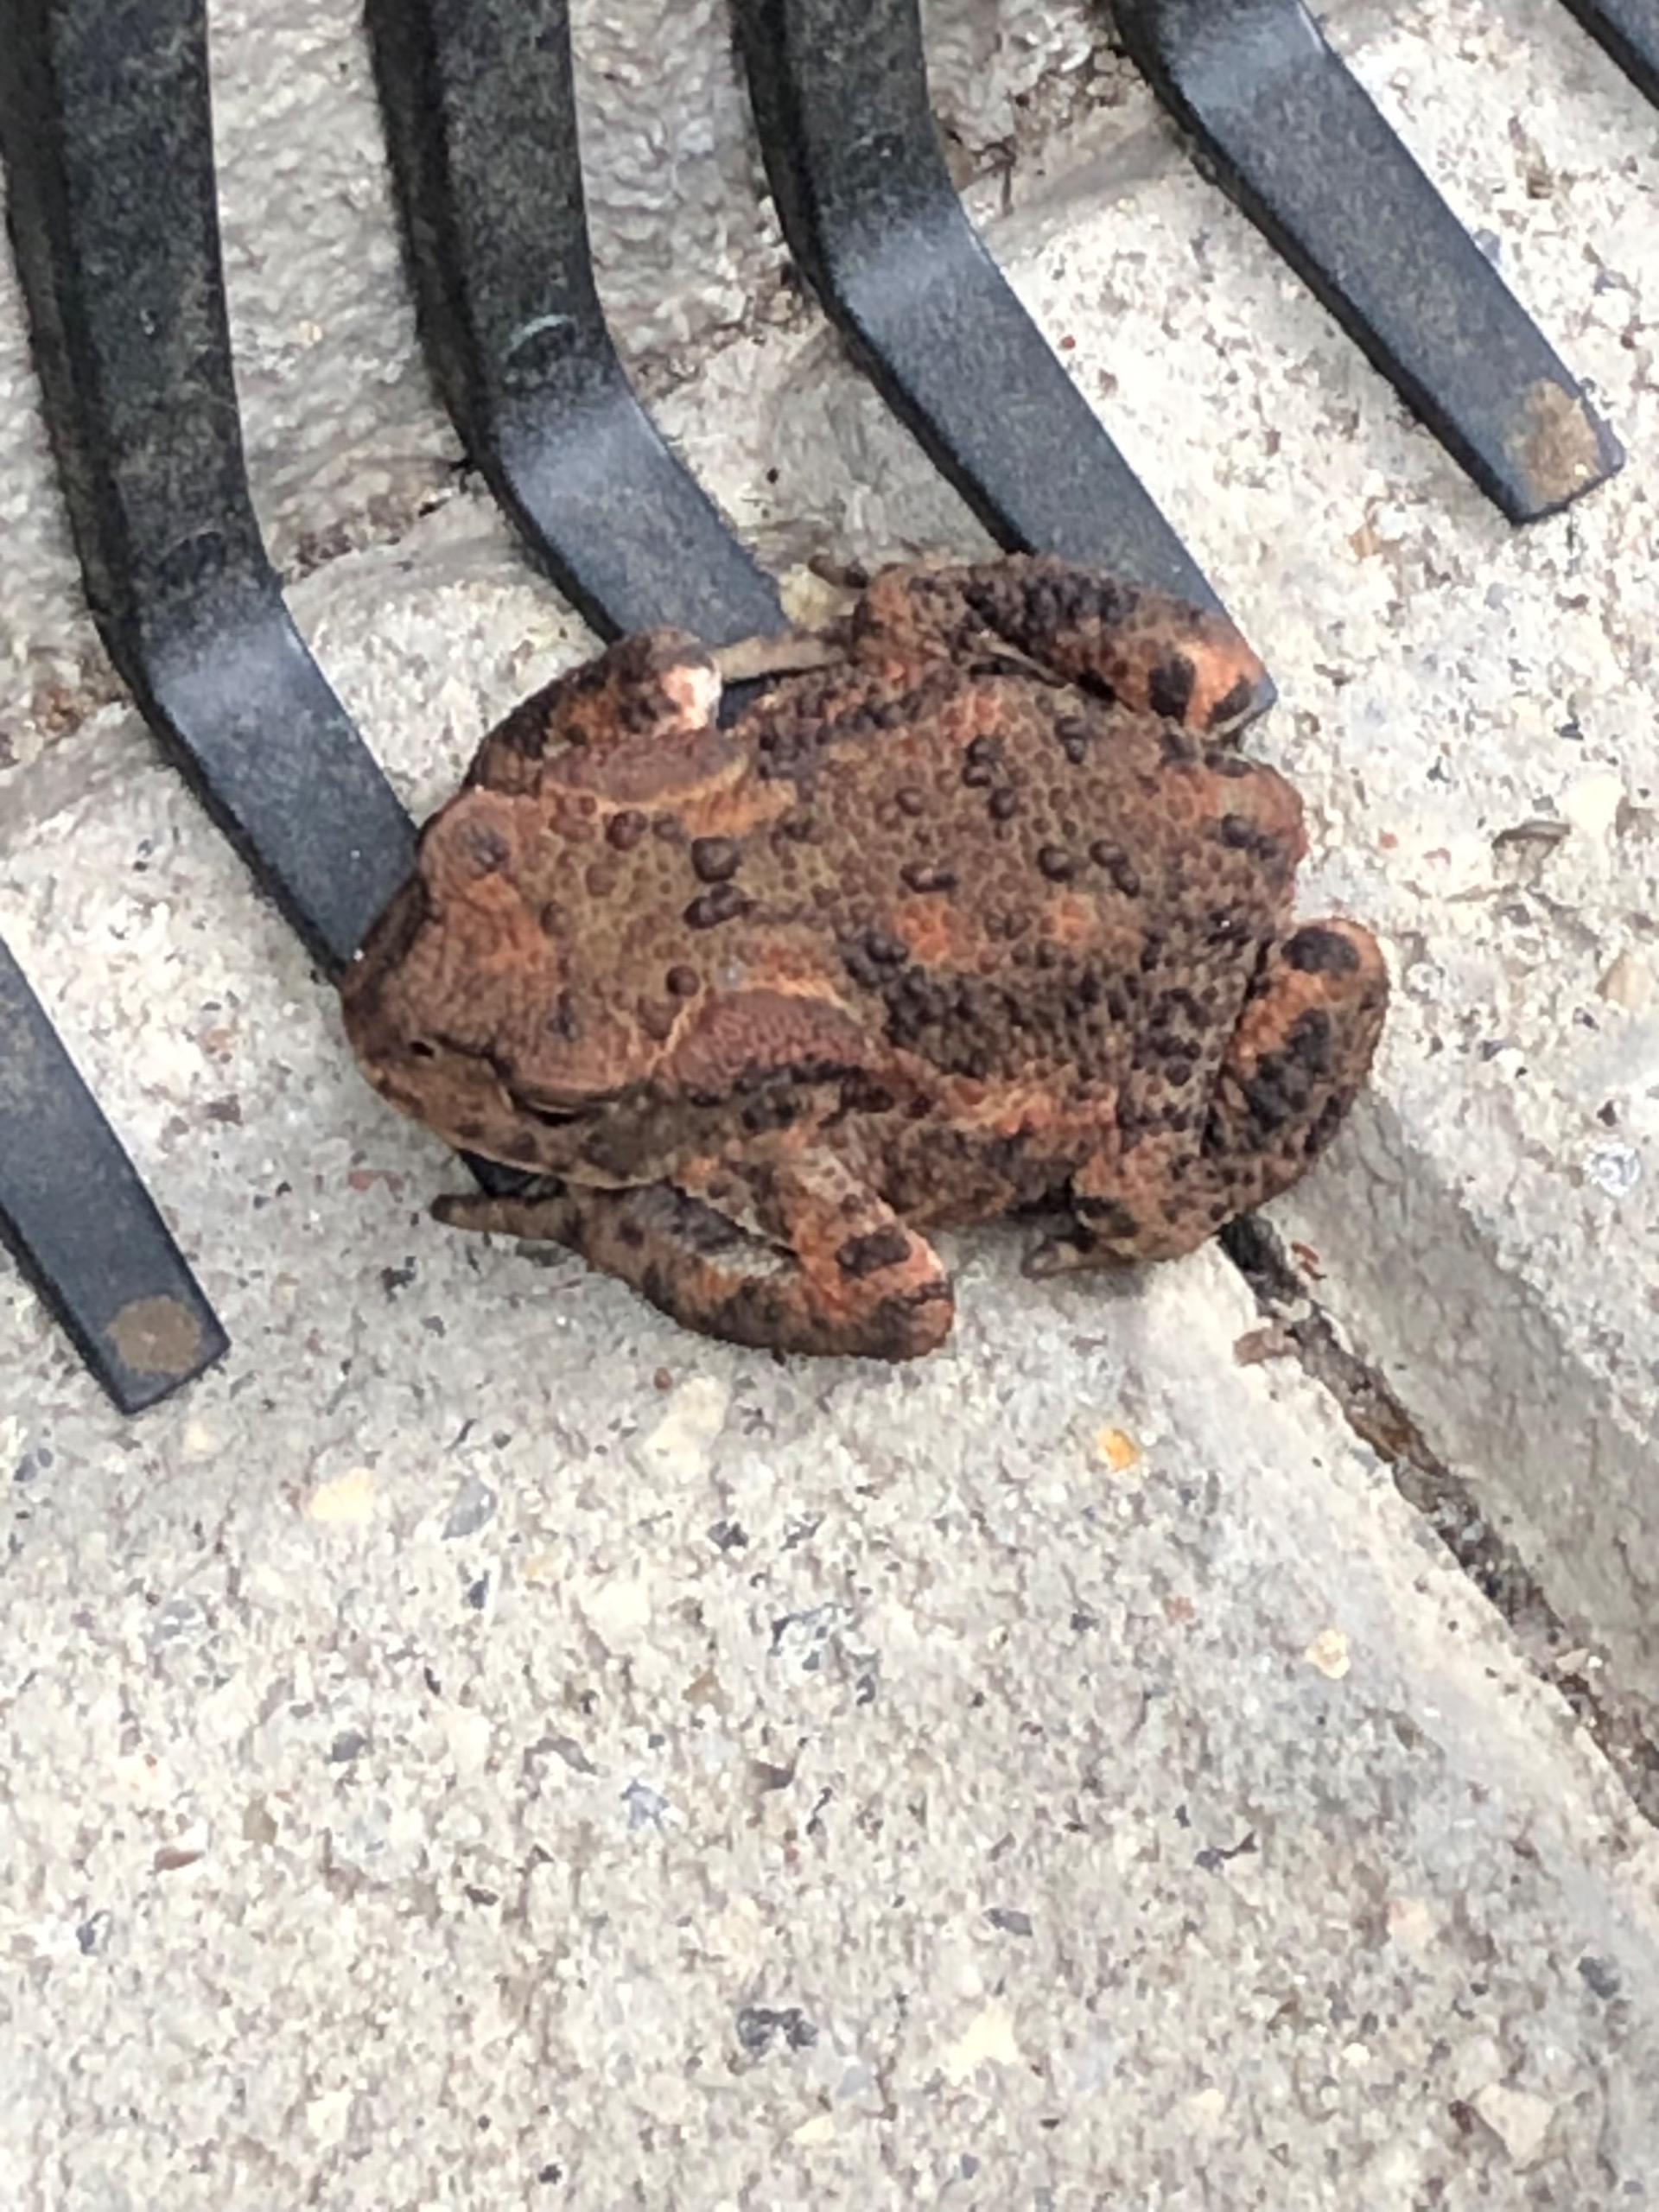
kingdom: Animalia
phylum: Chordata
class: Amphibia
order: Anura
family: Bufonidae
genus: Bufo
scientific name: Bufo bufo
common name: Skrubtudse
